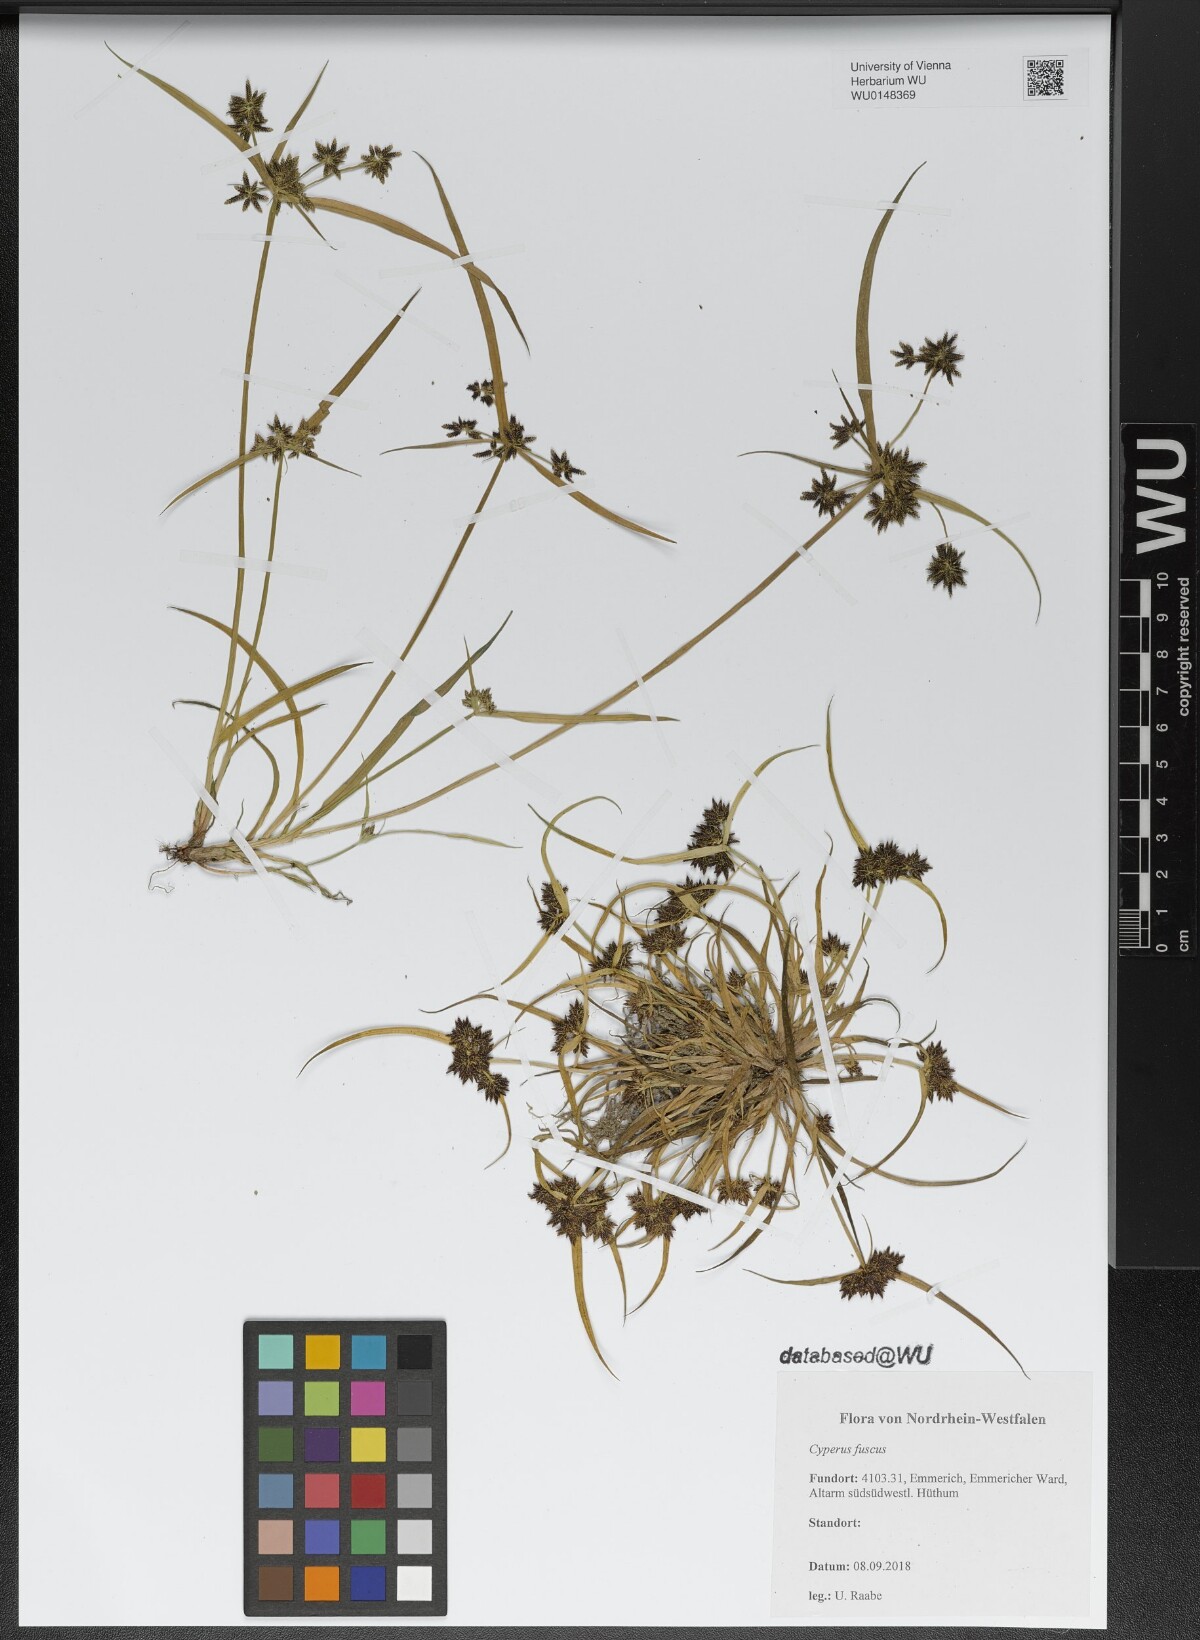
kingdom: Plantae
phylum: Tracheophyta
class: Liliopsida
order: Poales
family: Cyperaceae
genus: Cyperus
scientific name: Cyperus fuscus
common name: Brown galingale
